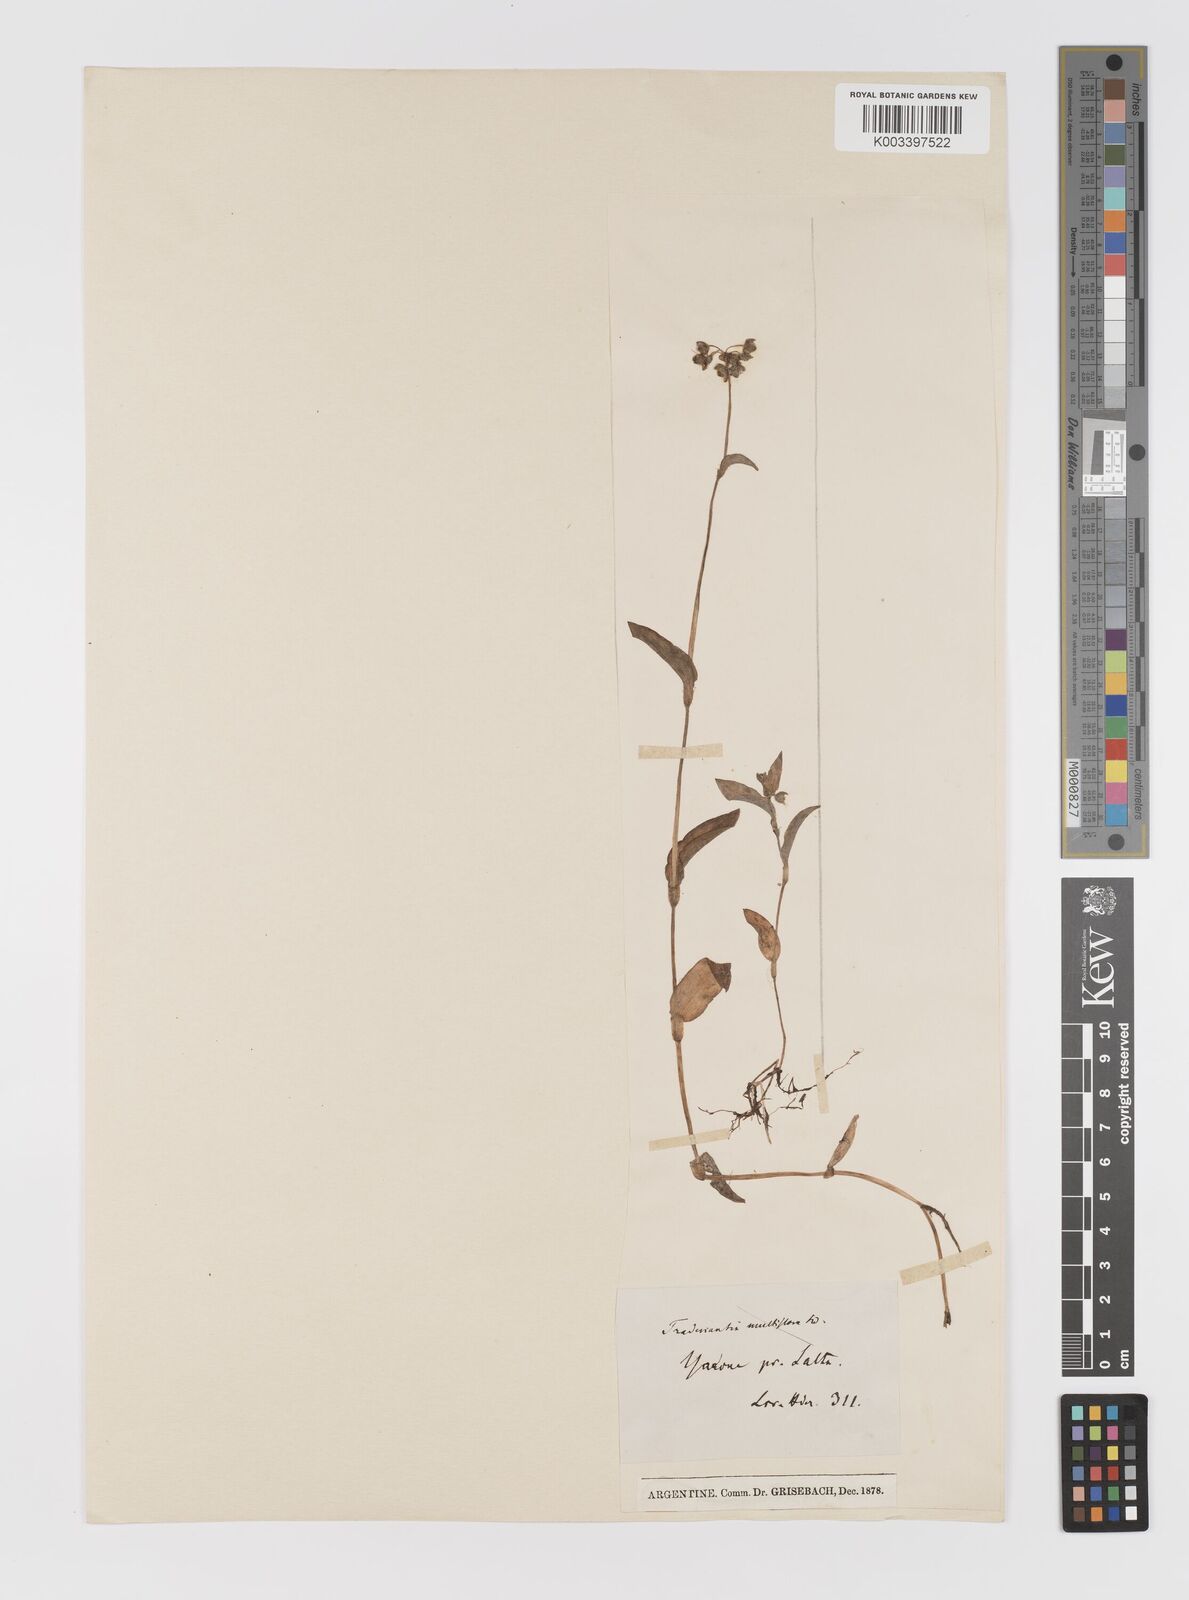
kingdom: Plantae
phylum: Tracheophyta
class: Liliopsida
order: Commelinales
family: Commelinaceae
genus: Callisia
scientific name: Callisia glandulosa
